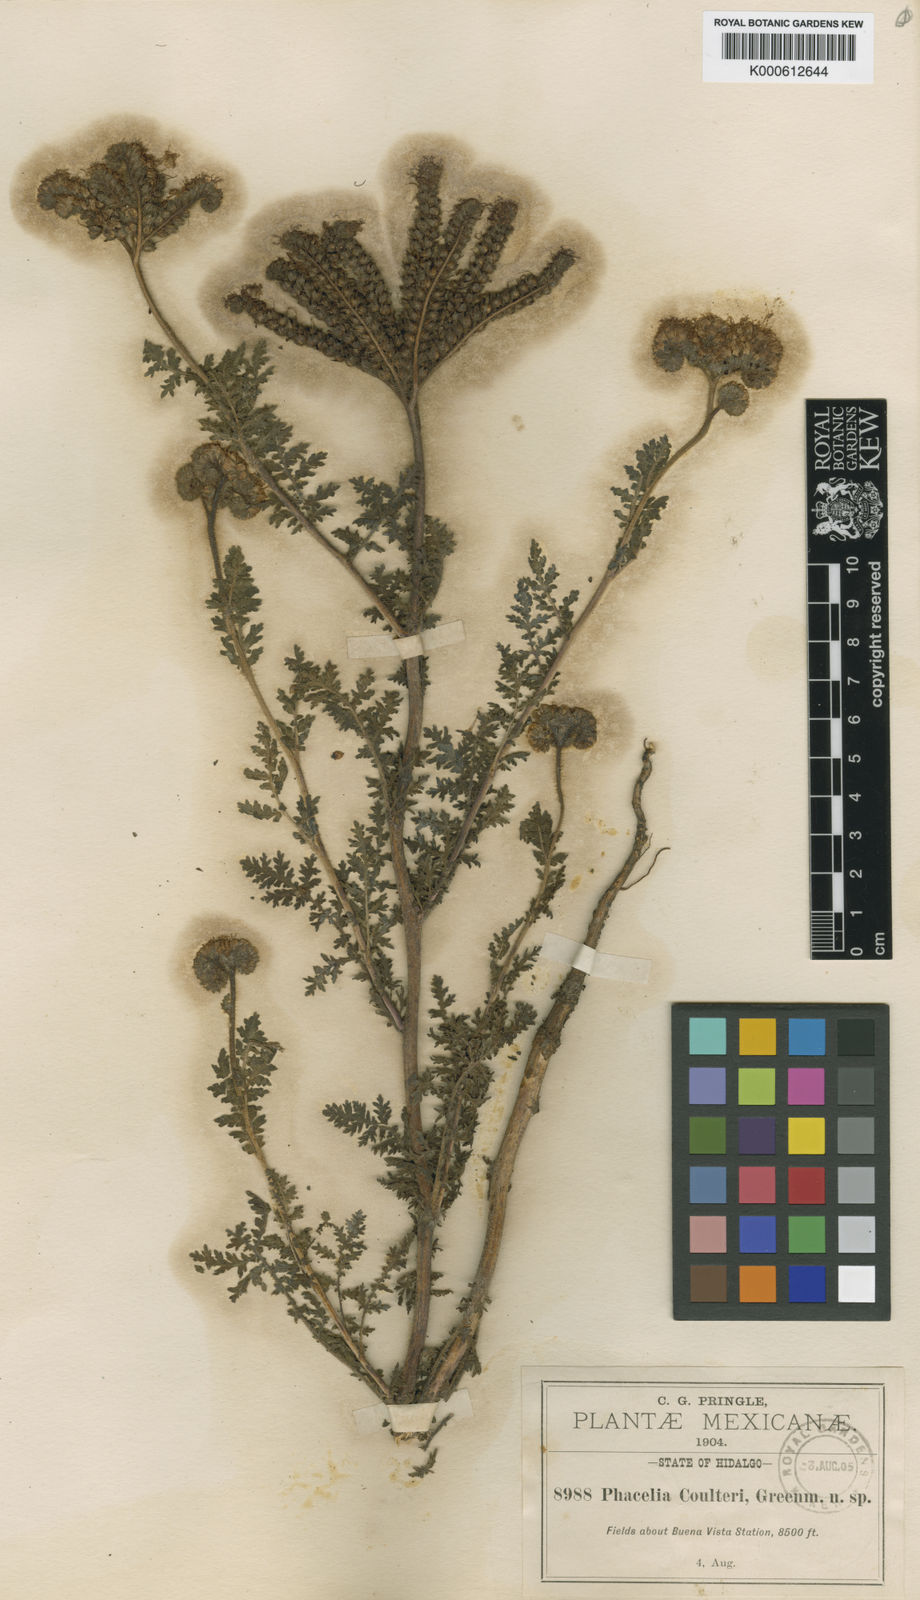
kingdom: Plantae
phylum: Tracheophyta
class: Magnoliopsida
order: Boraginales
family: Hydrophyllaceae
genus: Phacelia
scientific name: Phacelia neomexicana
